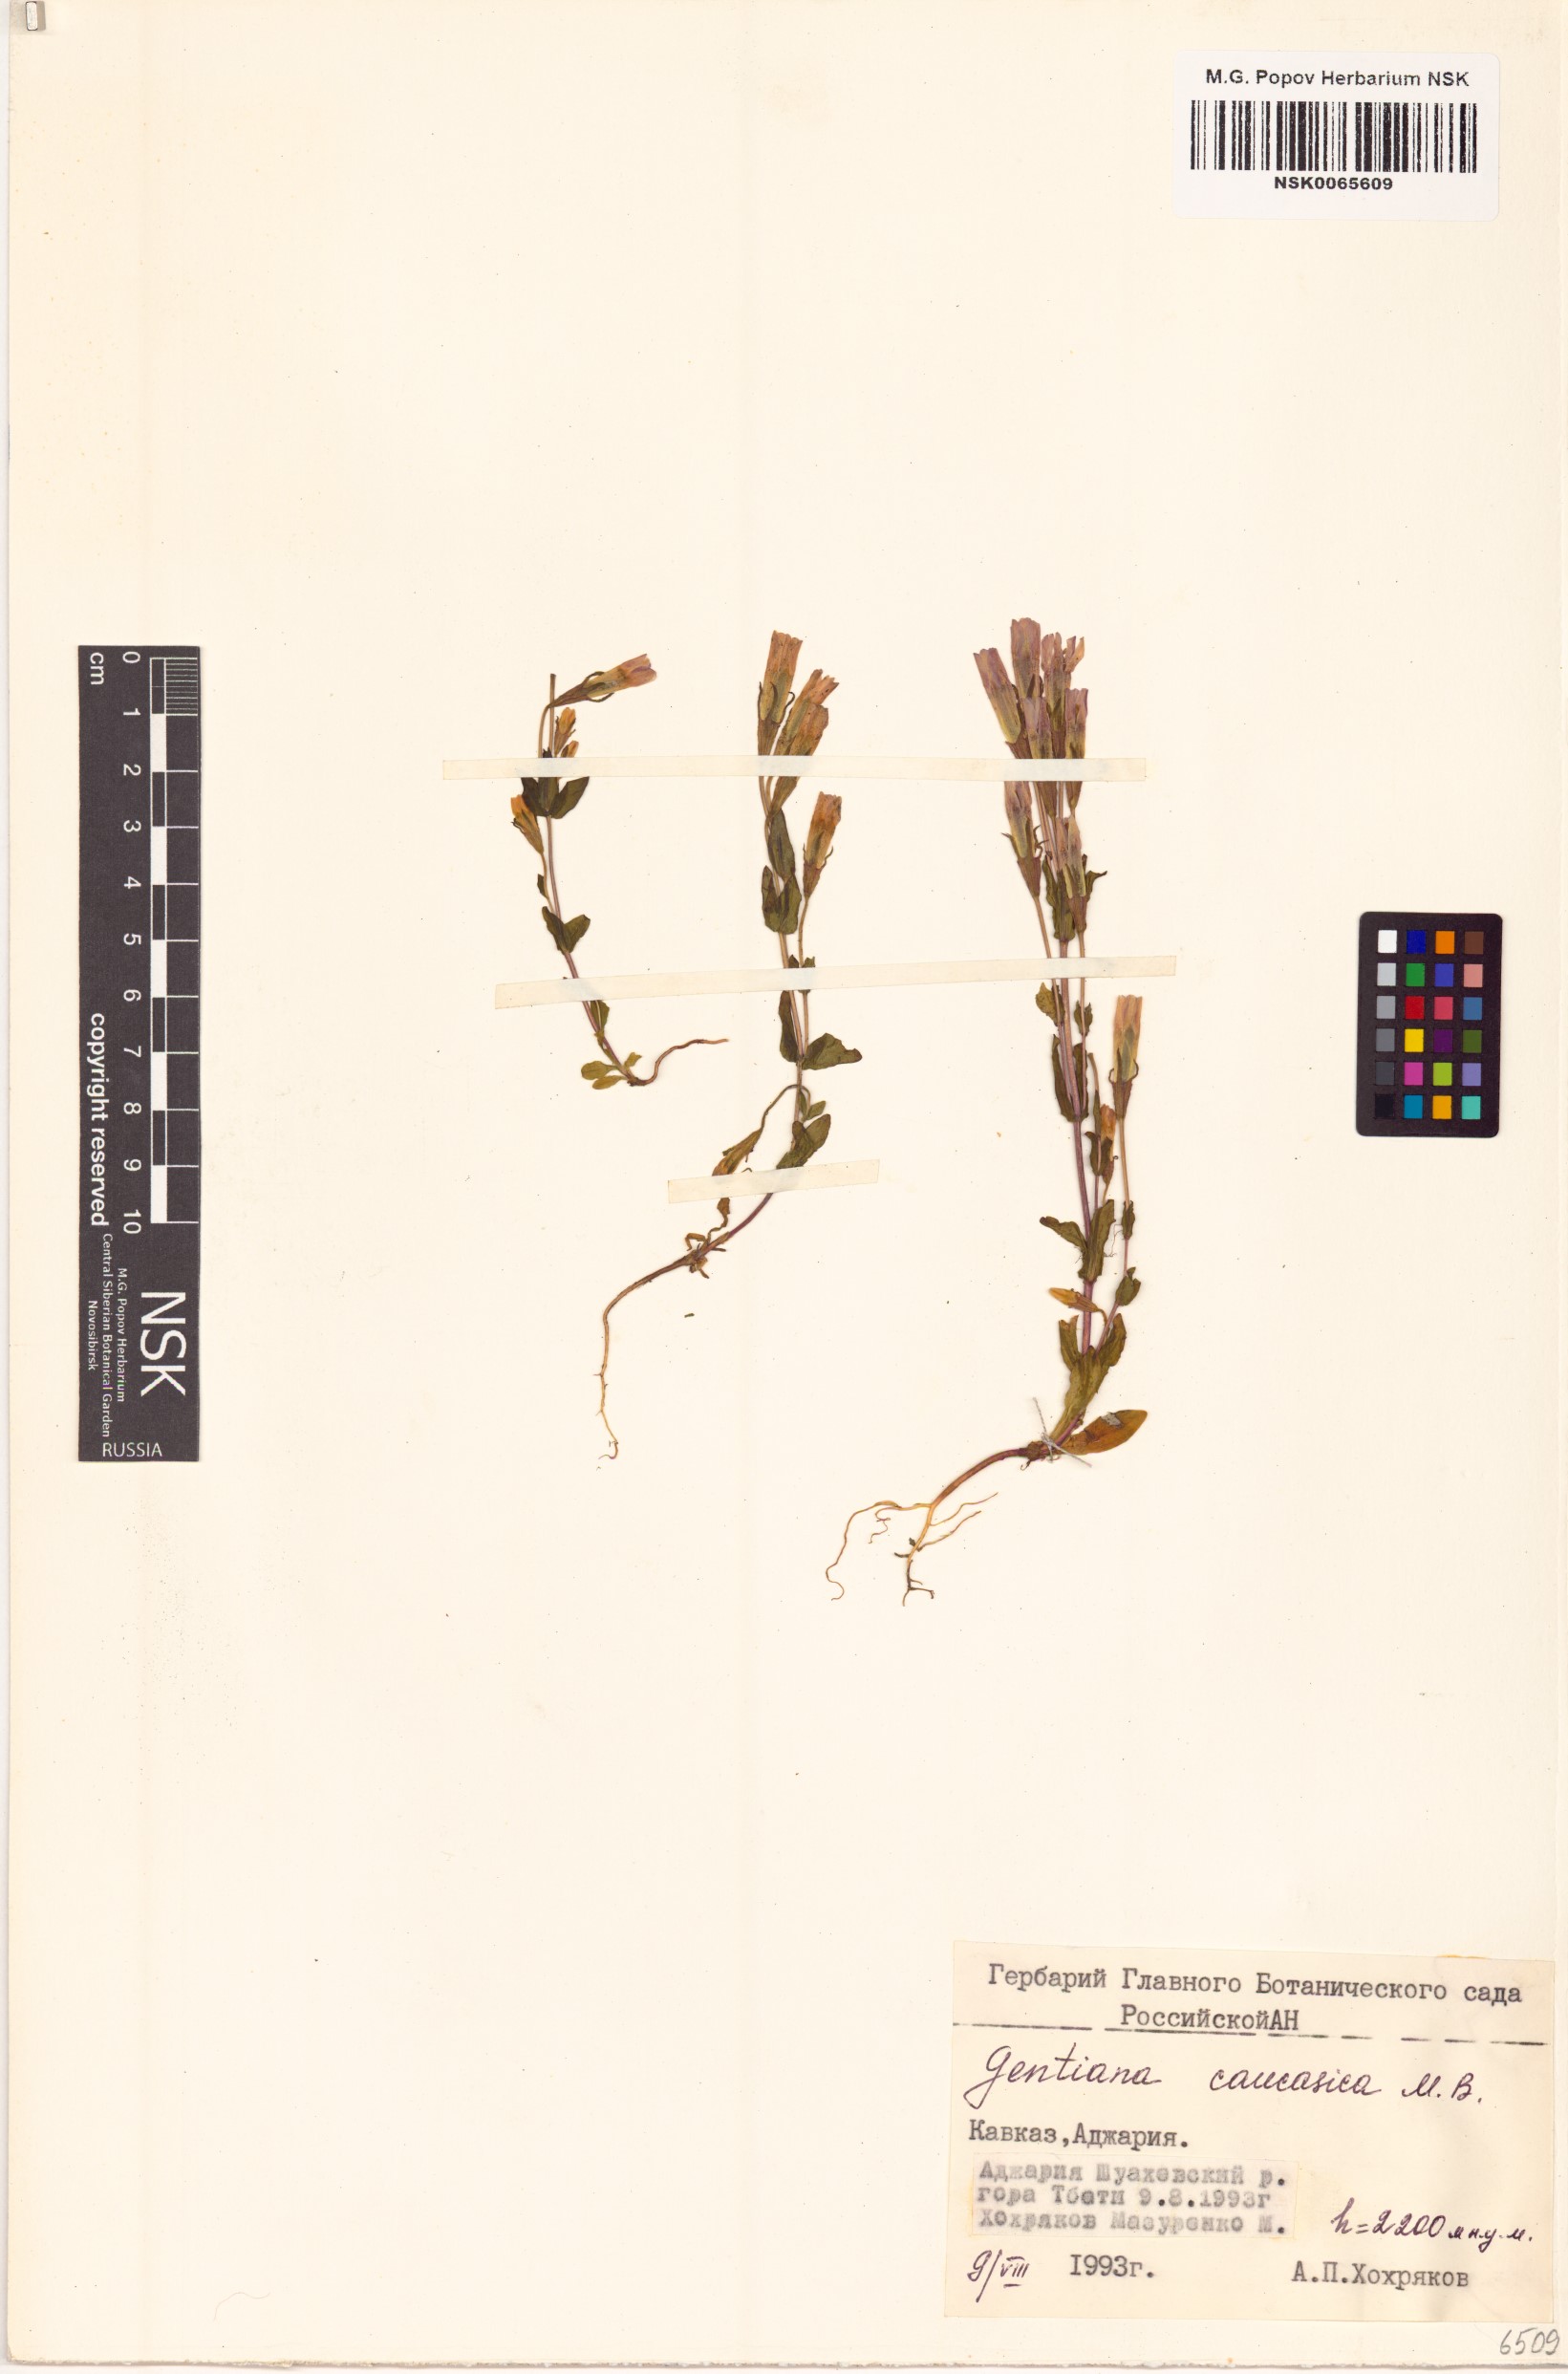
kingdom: Plantae
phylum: Tracheophyta
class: Magnoliopsida
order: Gentianales
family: Gentianaceae
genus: Gentianella
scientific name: Gentianella caucasea
